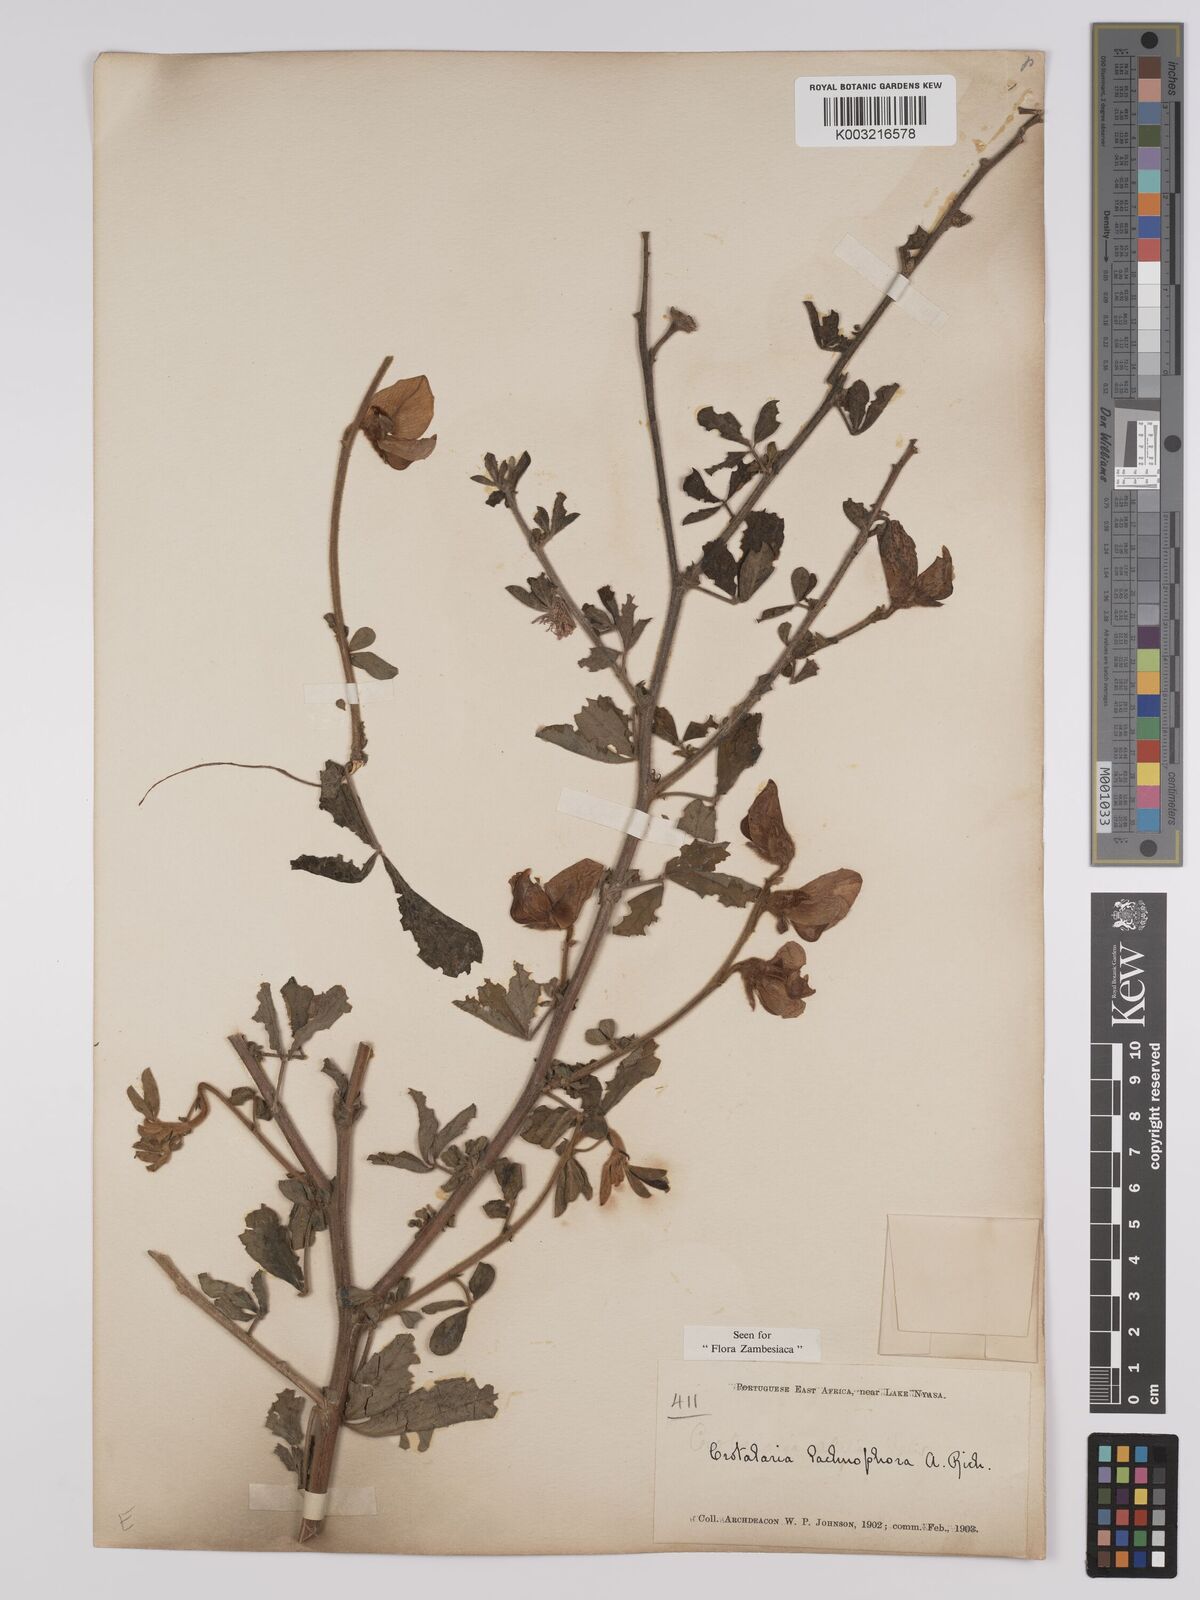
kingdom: Plantae
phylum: Tracheophyta
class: Magnoliopsida
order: Fabales
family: Fabaceae
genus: Crotalaria
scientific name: Crotalaria lachnophora
